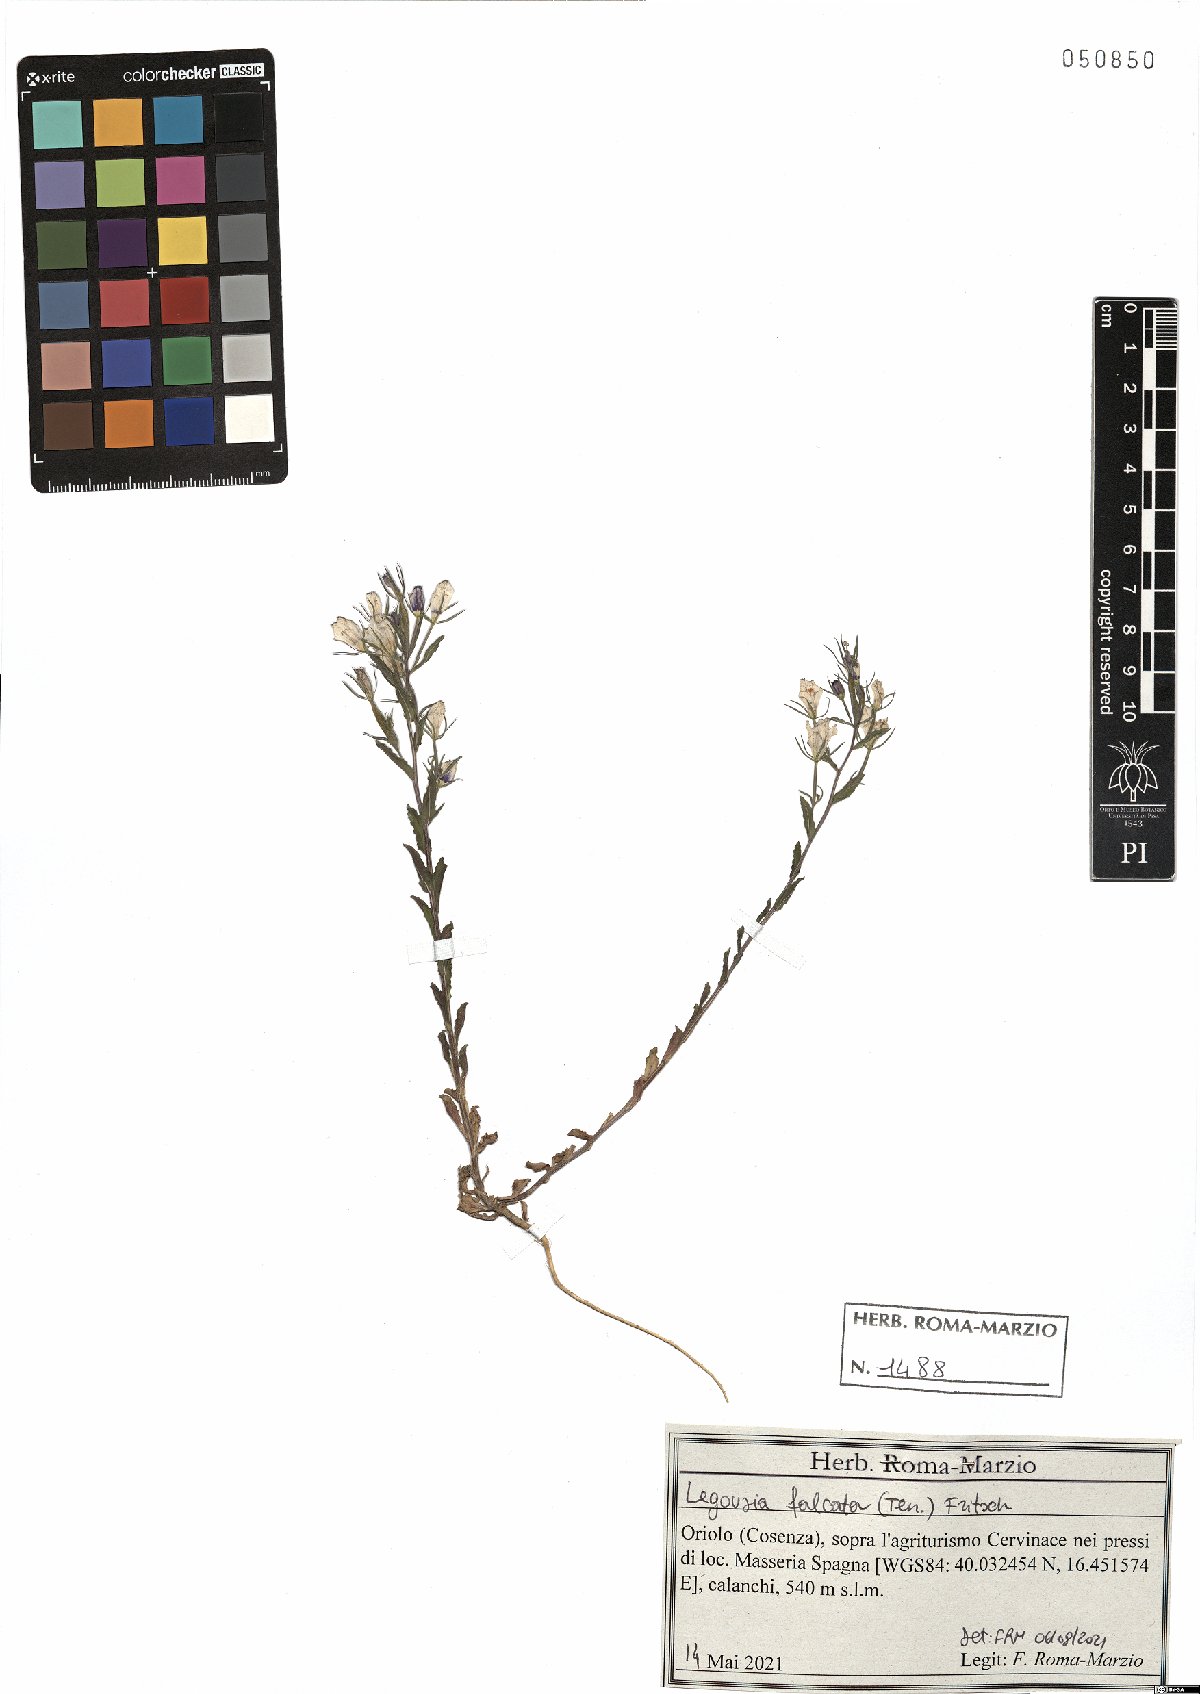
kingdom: Plantae
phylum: Tracheophyta
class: Magnoliopsida
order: Asterales
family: Campanulaceae
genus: Legousia
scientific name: Legousia falcata
